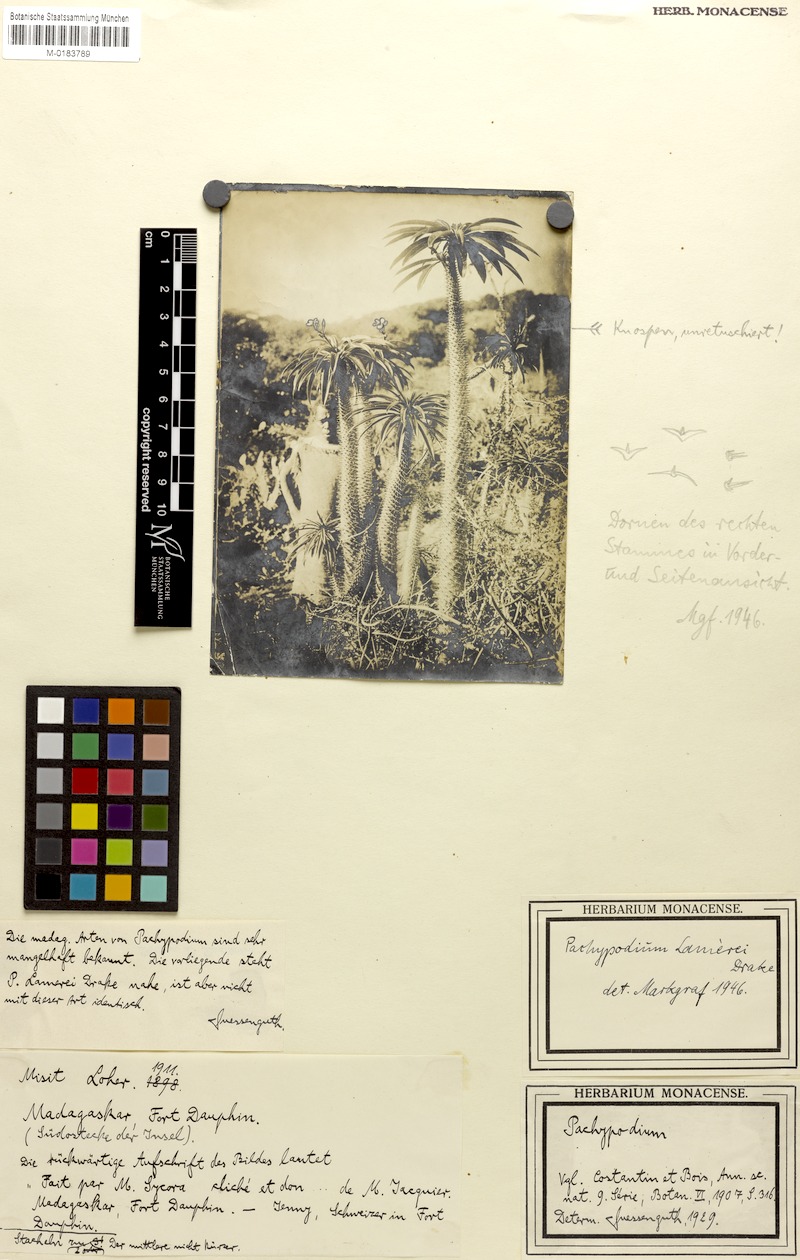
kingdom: Plantae
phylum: Tracheophyta
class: Magnoliopsida
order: Gentianales
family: Apocynaceae
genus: Pachypodium
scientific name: Pachypodium lamerei
